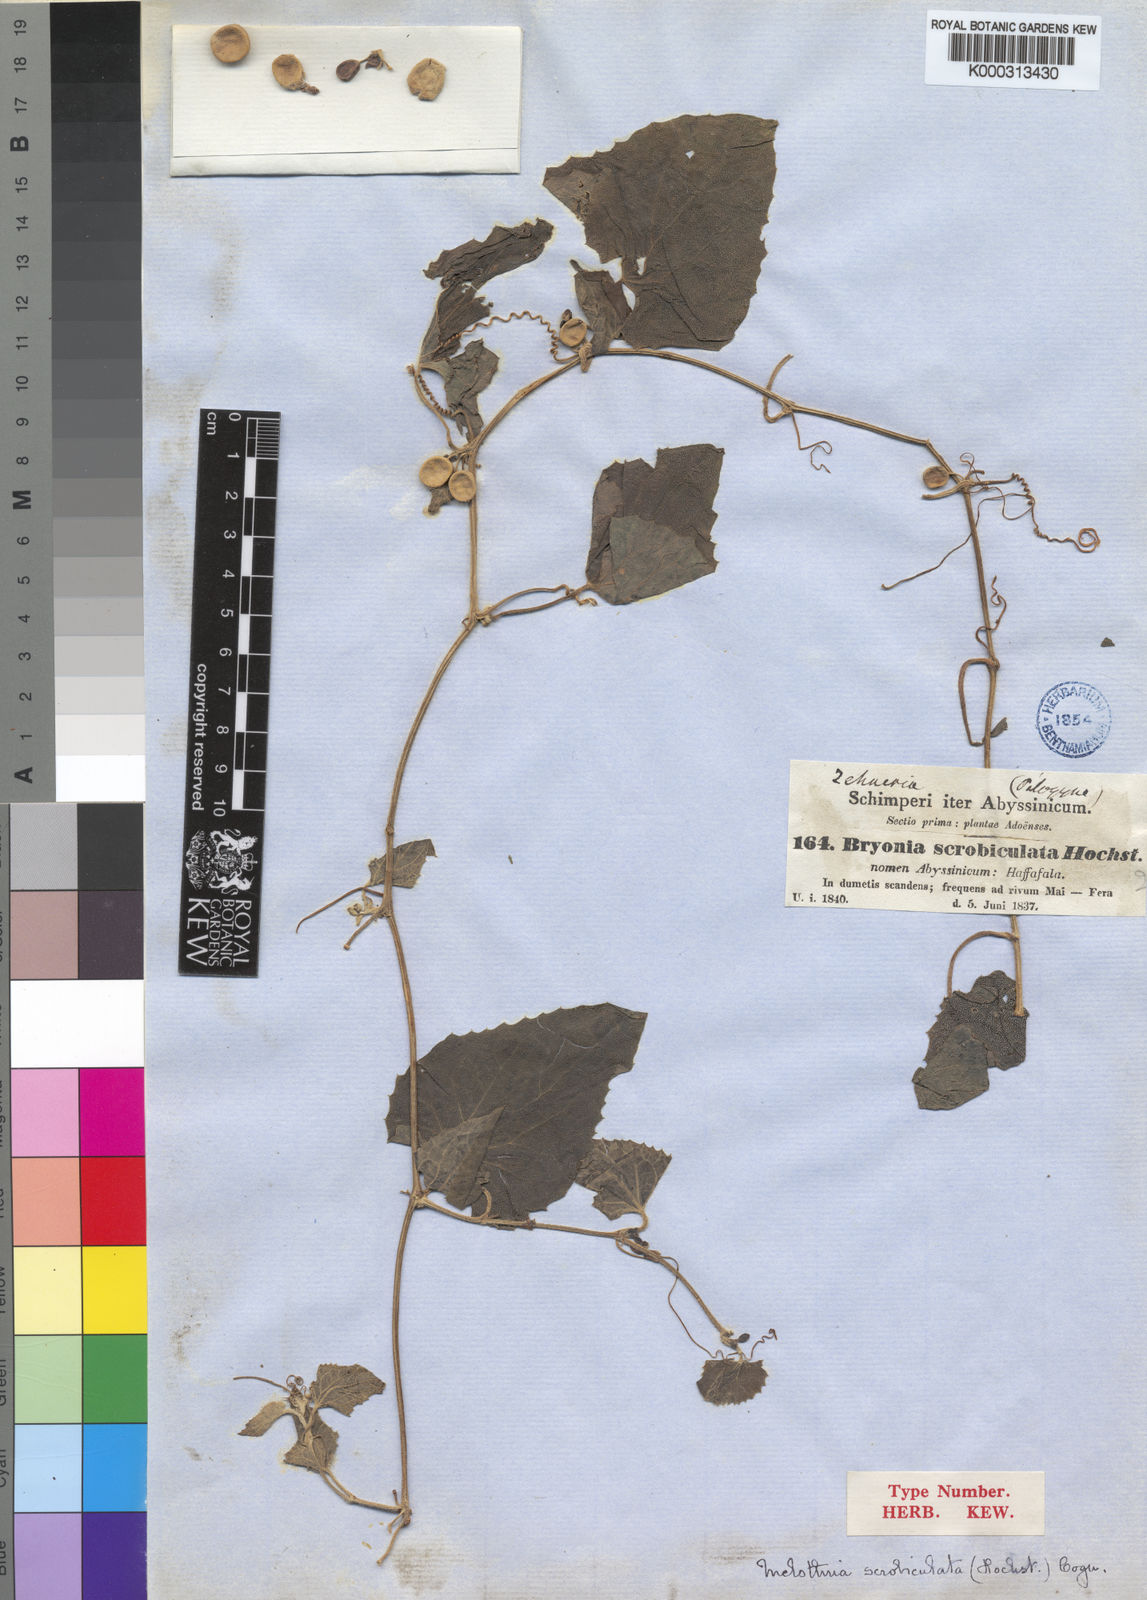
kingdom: Plantae
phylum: Tracheophyta
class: Magnoliopsida
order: Cucurbitales
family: Cucurbitaceae
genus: Zehneria
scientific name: Zehneria scabra
